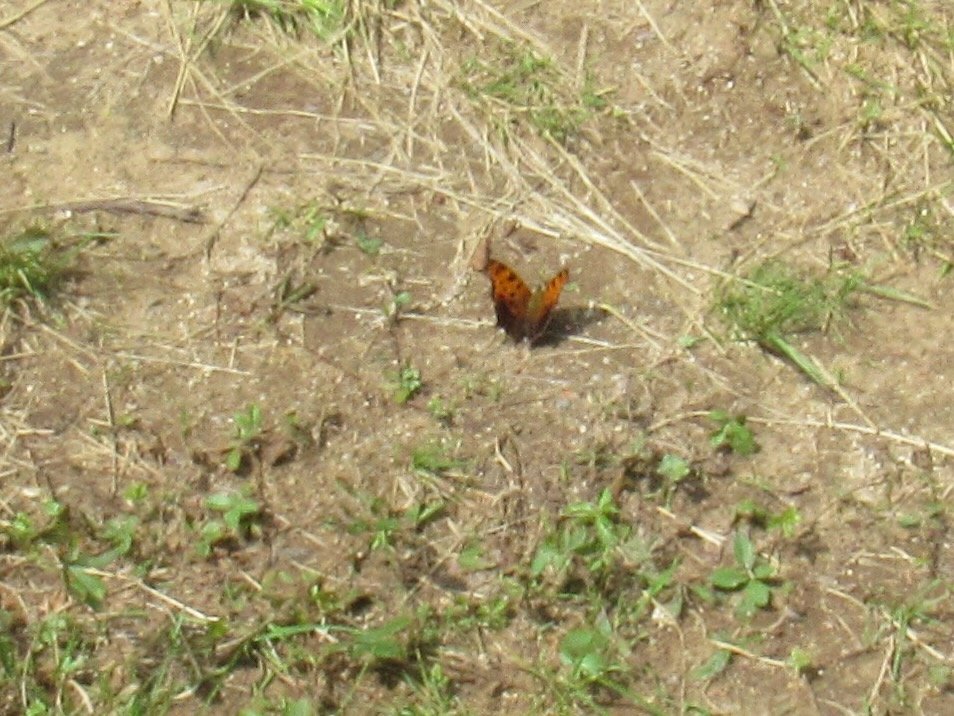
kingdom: Animalia
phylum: Arthropoda
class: Insecta
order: Lepidoptera
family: Nymphalidae
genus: Polygonia
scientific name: Polygonia comma
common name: Eastern Comma
